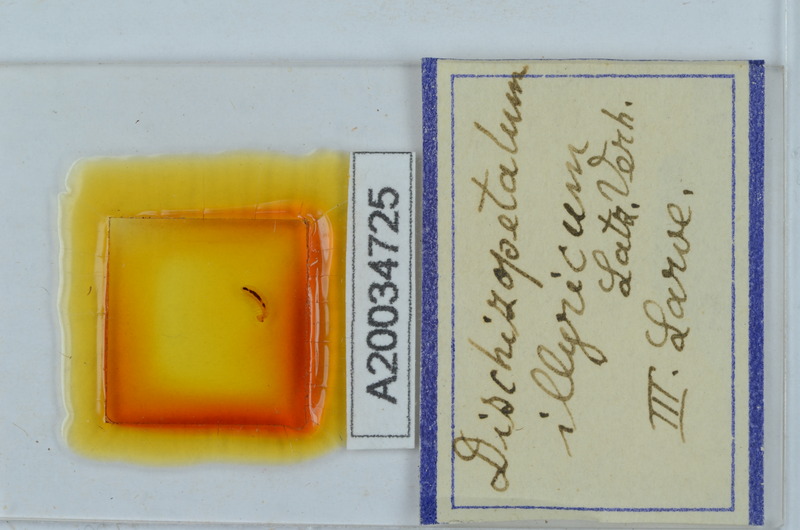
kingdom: Animalia
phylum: Arthropoda
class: Diplopoda
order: Callipodida
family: Schizopetalidae
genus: Dischizopetalum
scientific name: Dischizopetalum illyricum
